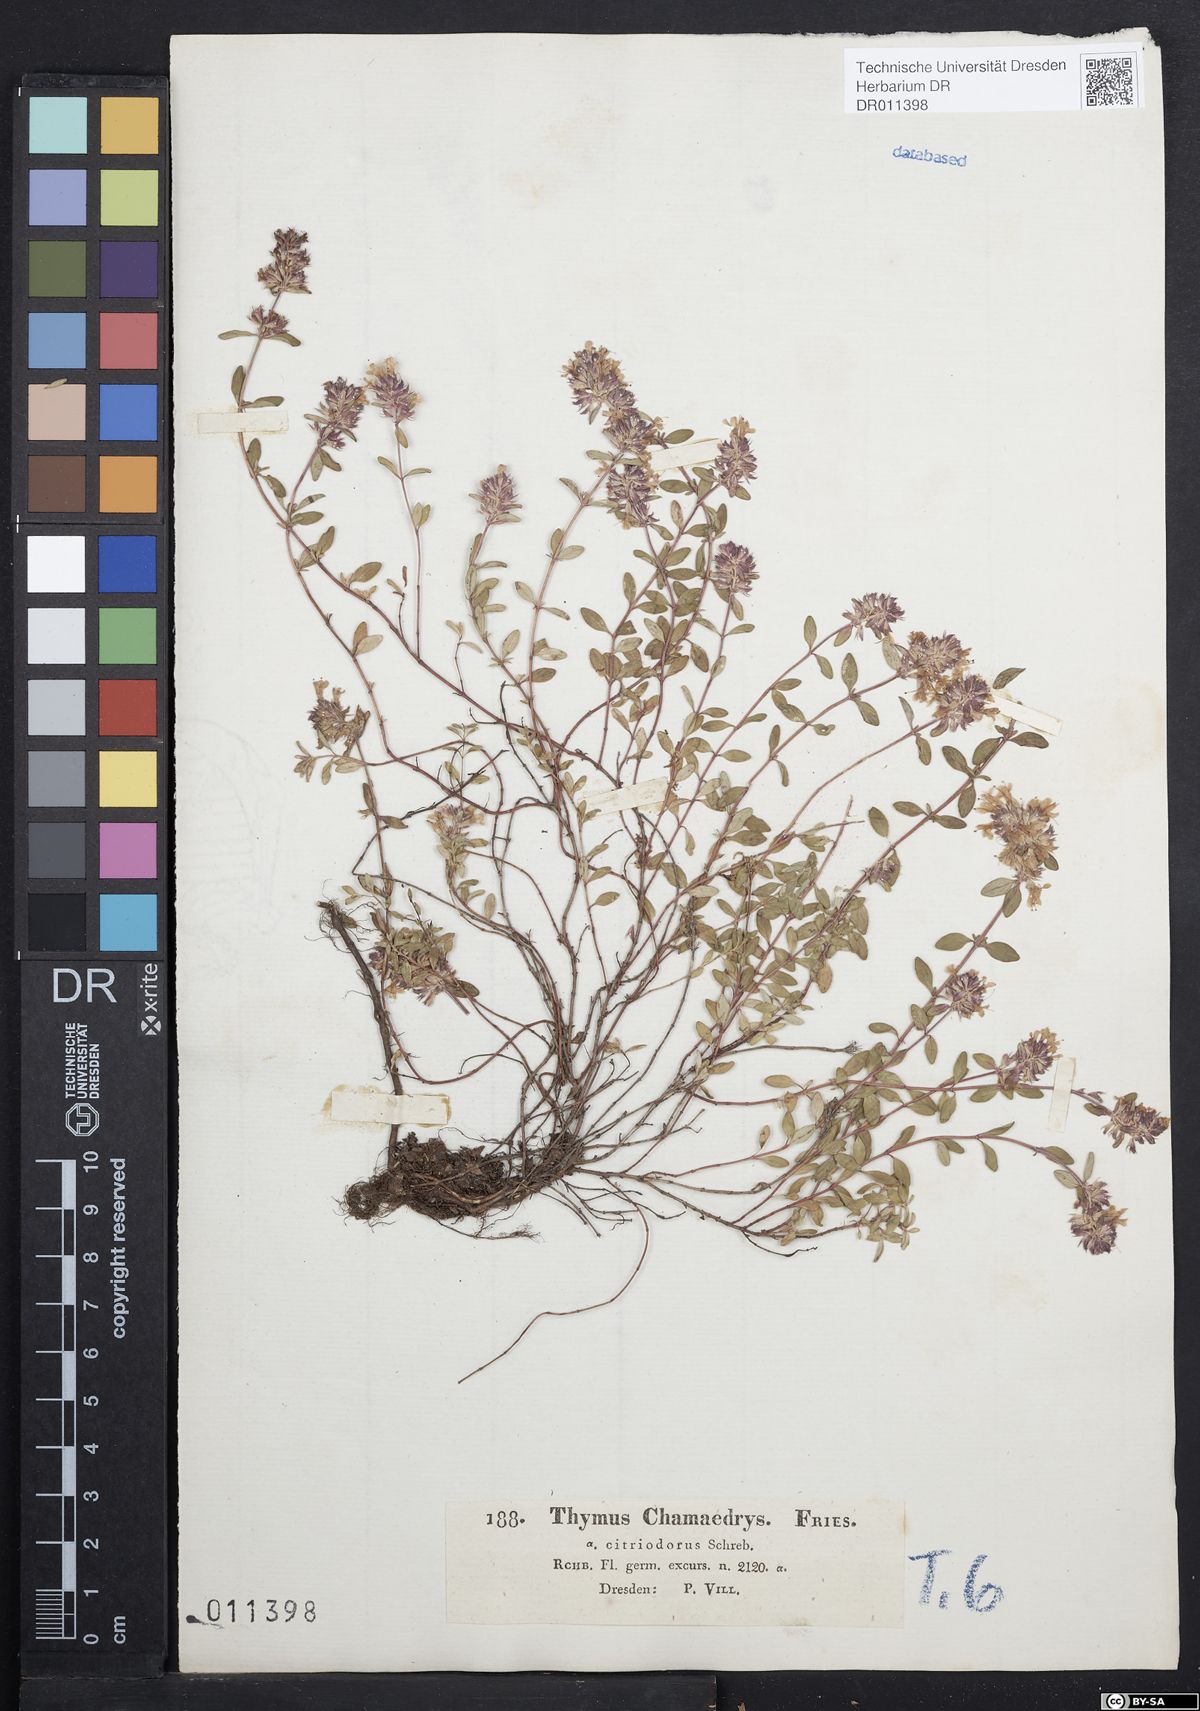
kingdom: Plantae
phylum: Tracheophyta
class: Magnoliopsida
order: Lamiales
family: Lamiaceae
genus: Thymus
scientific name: Thymus pulegioides
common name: Large thyme
